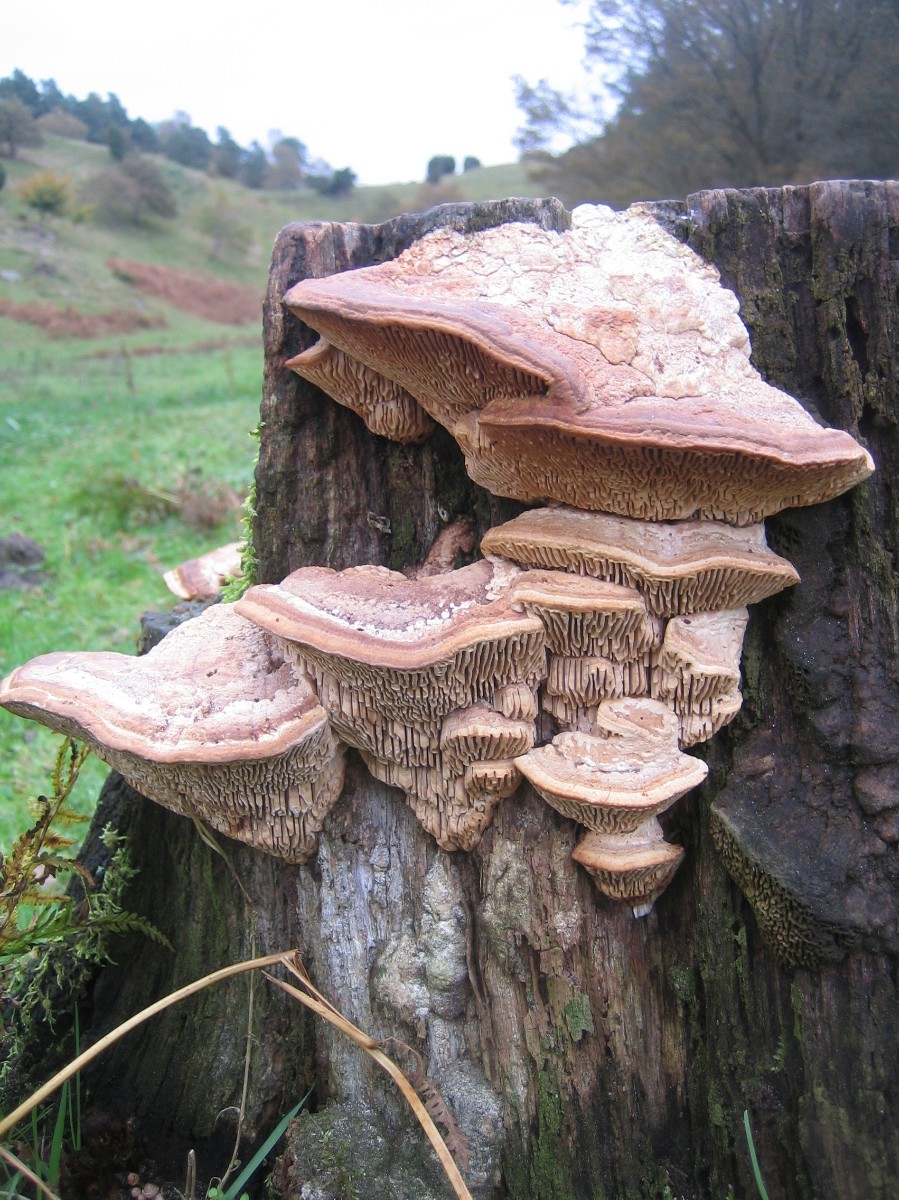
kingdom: Fungi
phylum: Basidiomycota
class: Agaricomycetes
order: Polyporales
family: Fomitopsidaceae
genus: Daedalea
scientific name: Daedalea quercina
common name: ege-labyrintsvamp
